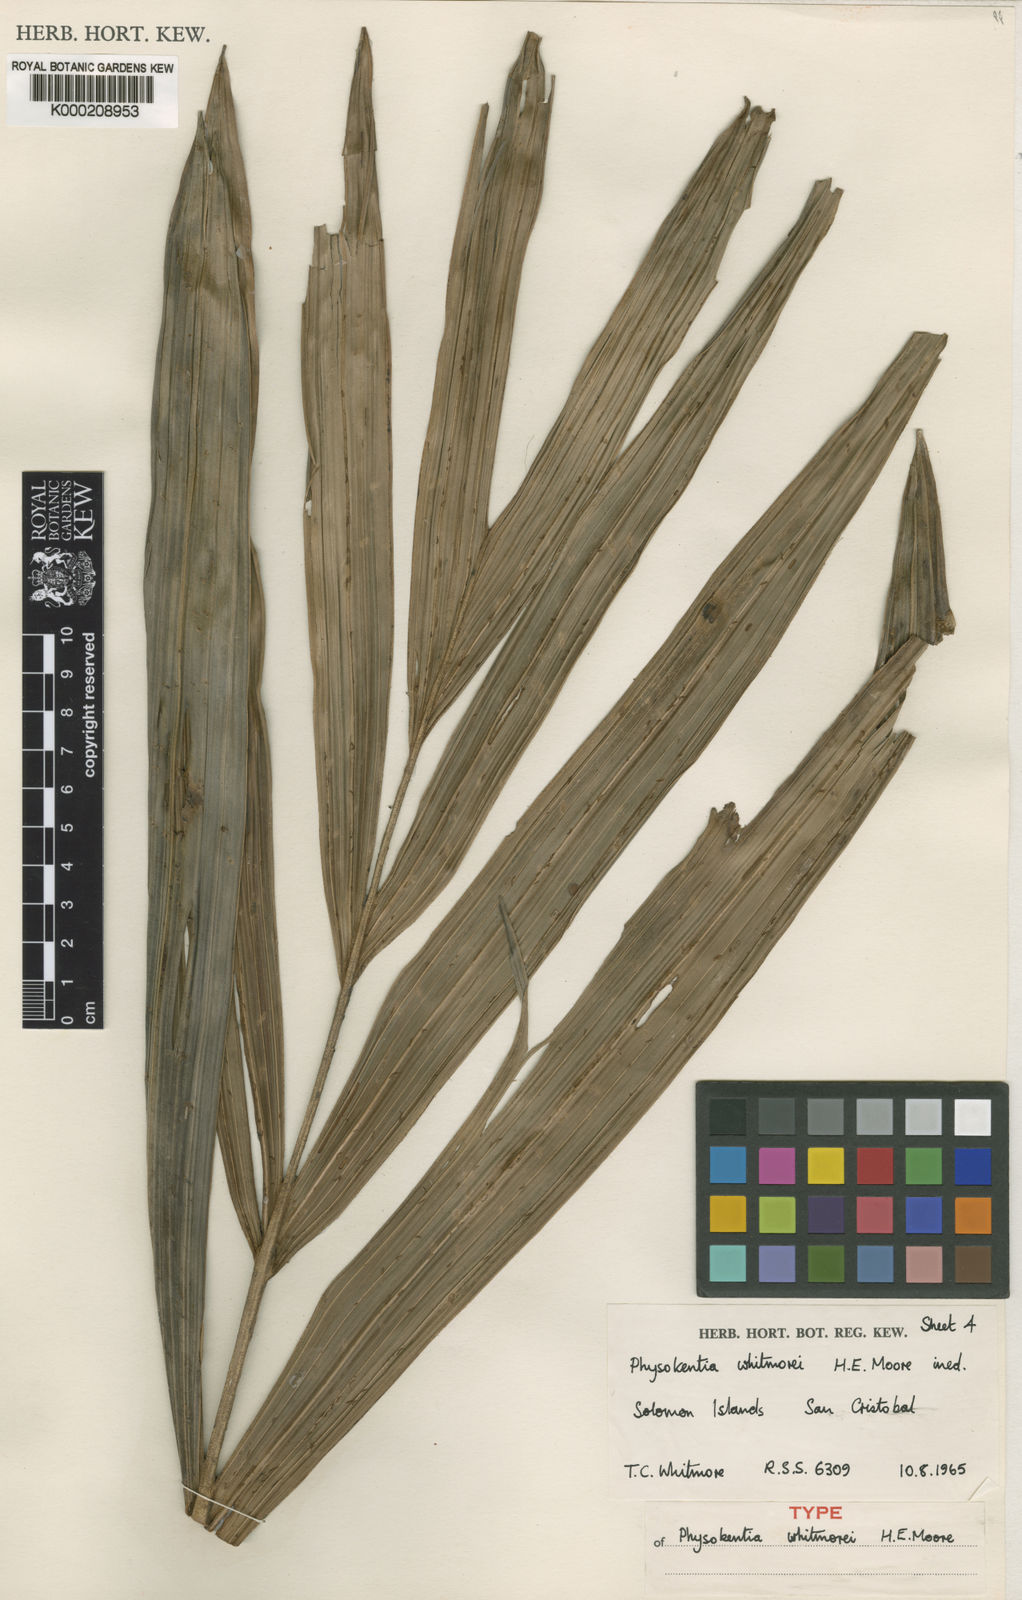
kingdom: Plantae
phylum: Tracheophyta
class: Liliopsida
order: Arecales
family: Arecaceae
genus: Physokentia
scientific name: Physokentia whitmorei
